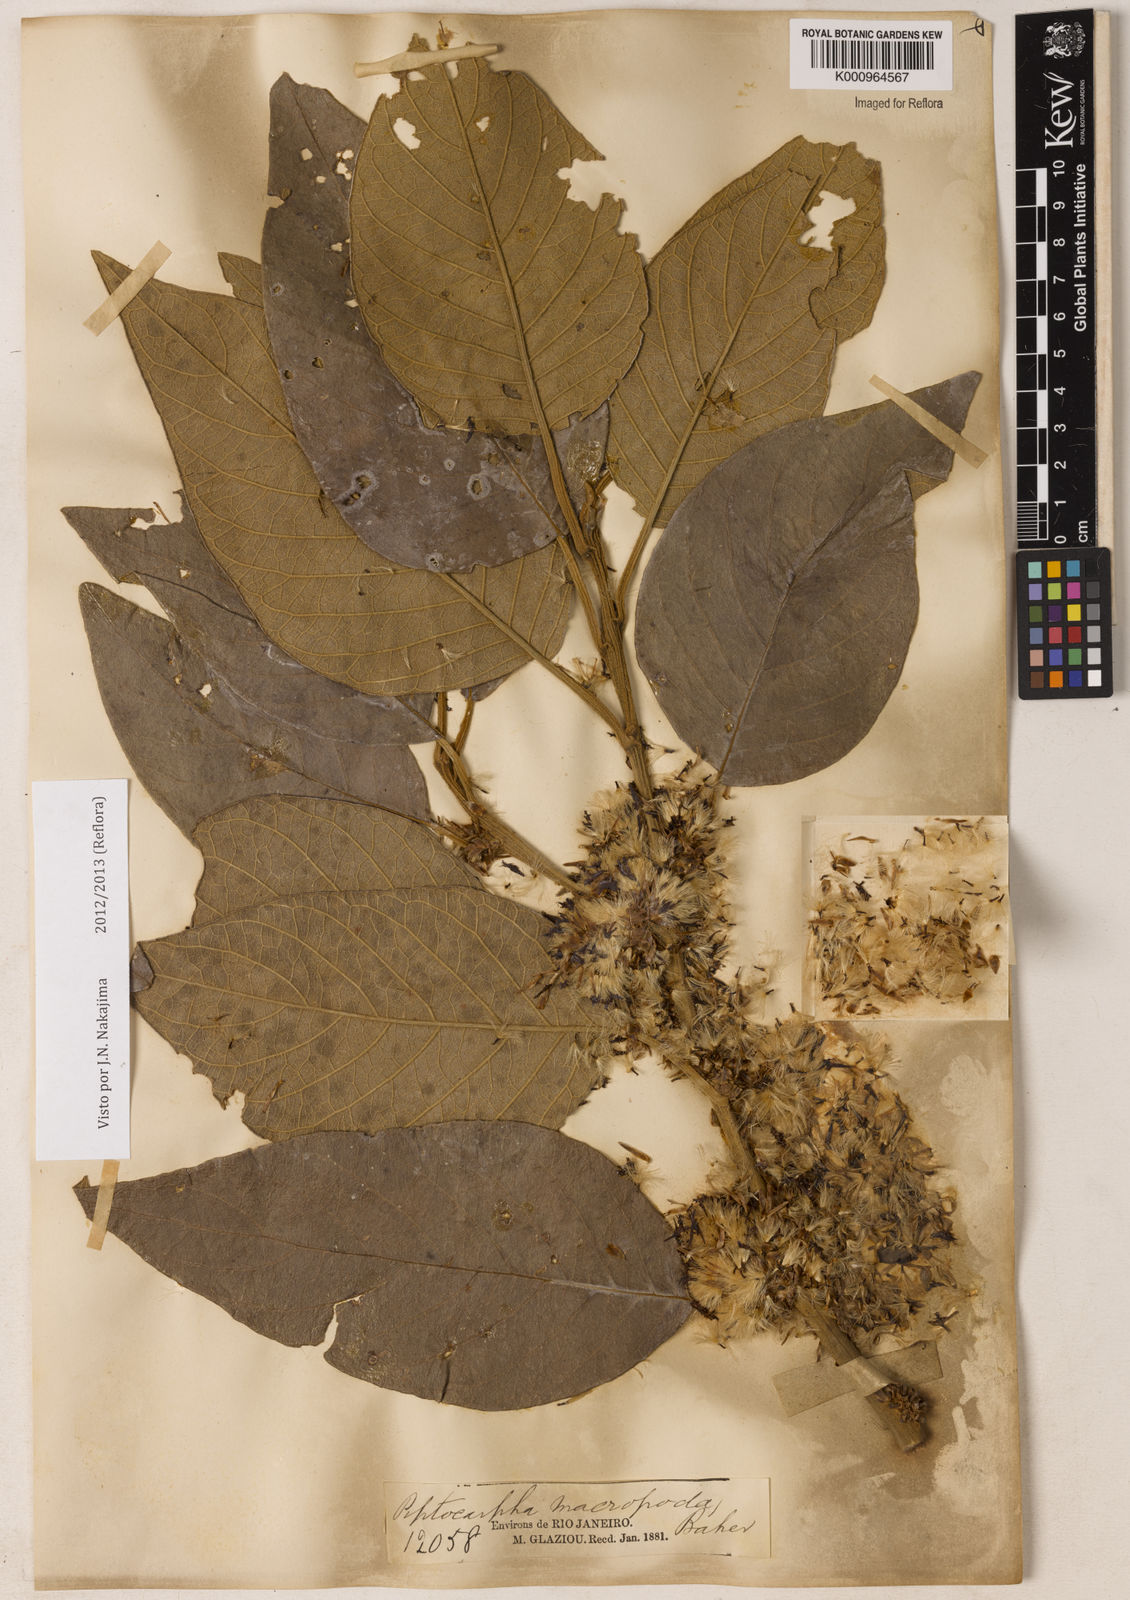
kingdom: Plantae
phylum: Tracheophyta
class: Magnoliopsida
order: Asterales
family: Asteraceae
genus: Piptocarpha
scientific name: Piptocarpha macropoda
